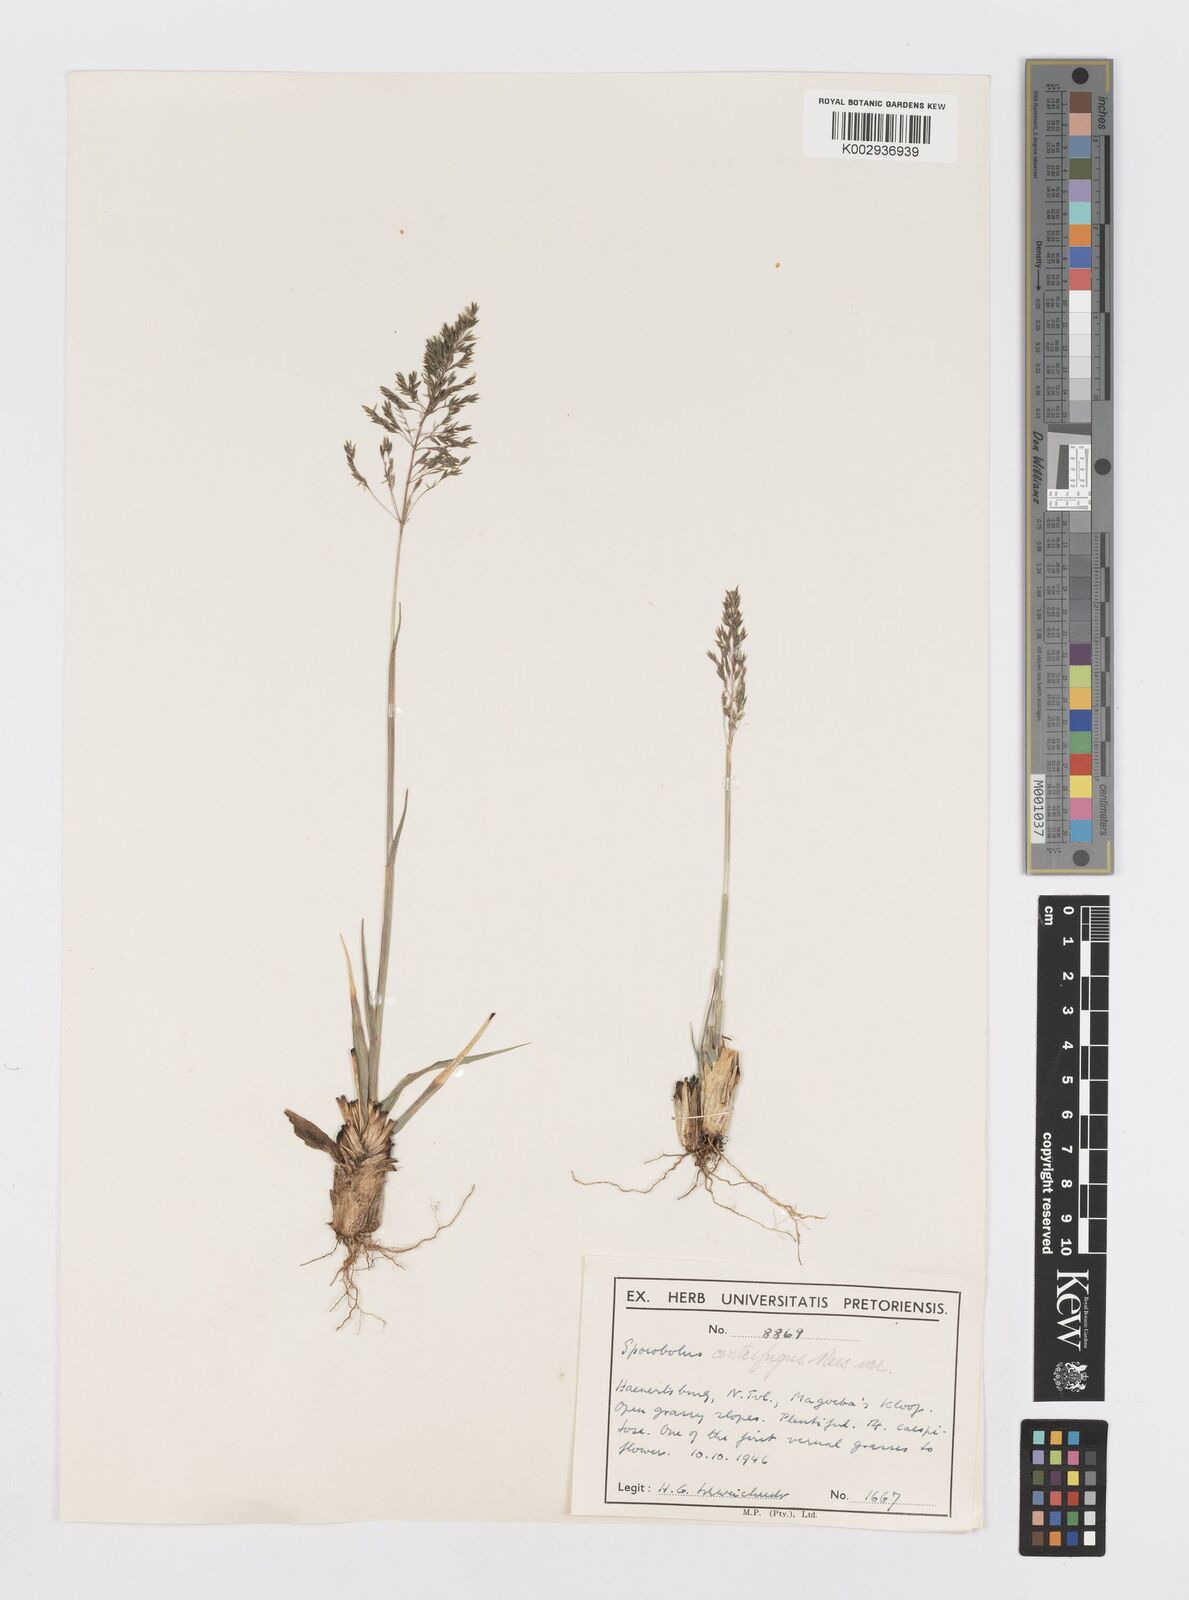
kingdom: Plantae
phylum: Tracheophyta
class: Liliopsida
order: Poales
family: Poaceae
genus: Sporobolus
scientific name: Sporobolus congoensis
